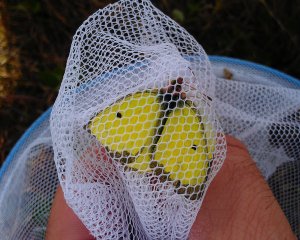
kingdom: Animalia
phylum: Arthropoda
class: Insecta
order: Lepidoptera
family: Pieridae
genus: Colias
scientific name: Colias philodice
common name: Clouded Sulphur
